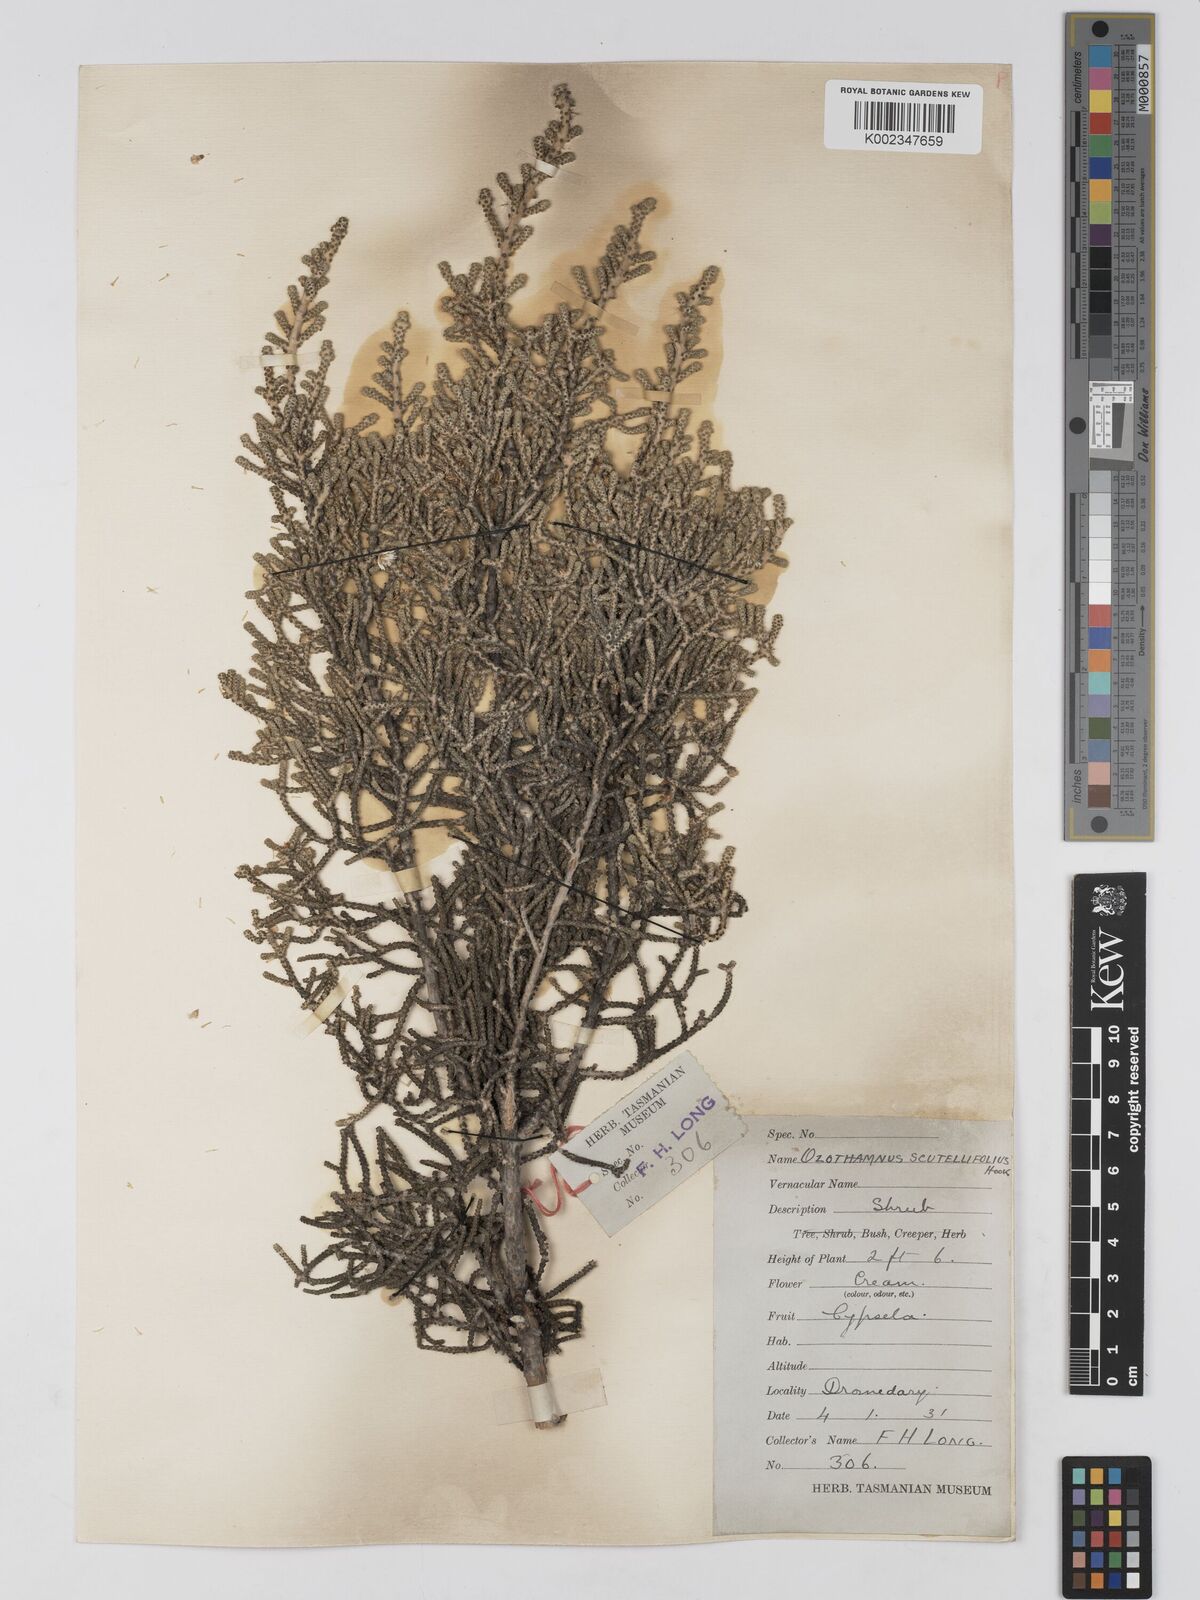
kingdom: Plantae
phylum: Tracheophyta
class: Magnoliopsida
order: Asterales
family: Asteraceae
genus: Ozothamnus
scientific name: Ozothamnus scutellifolius
